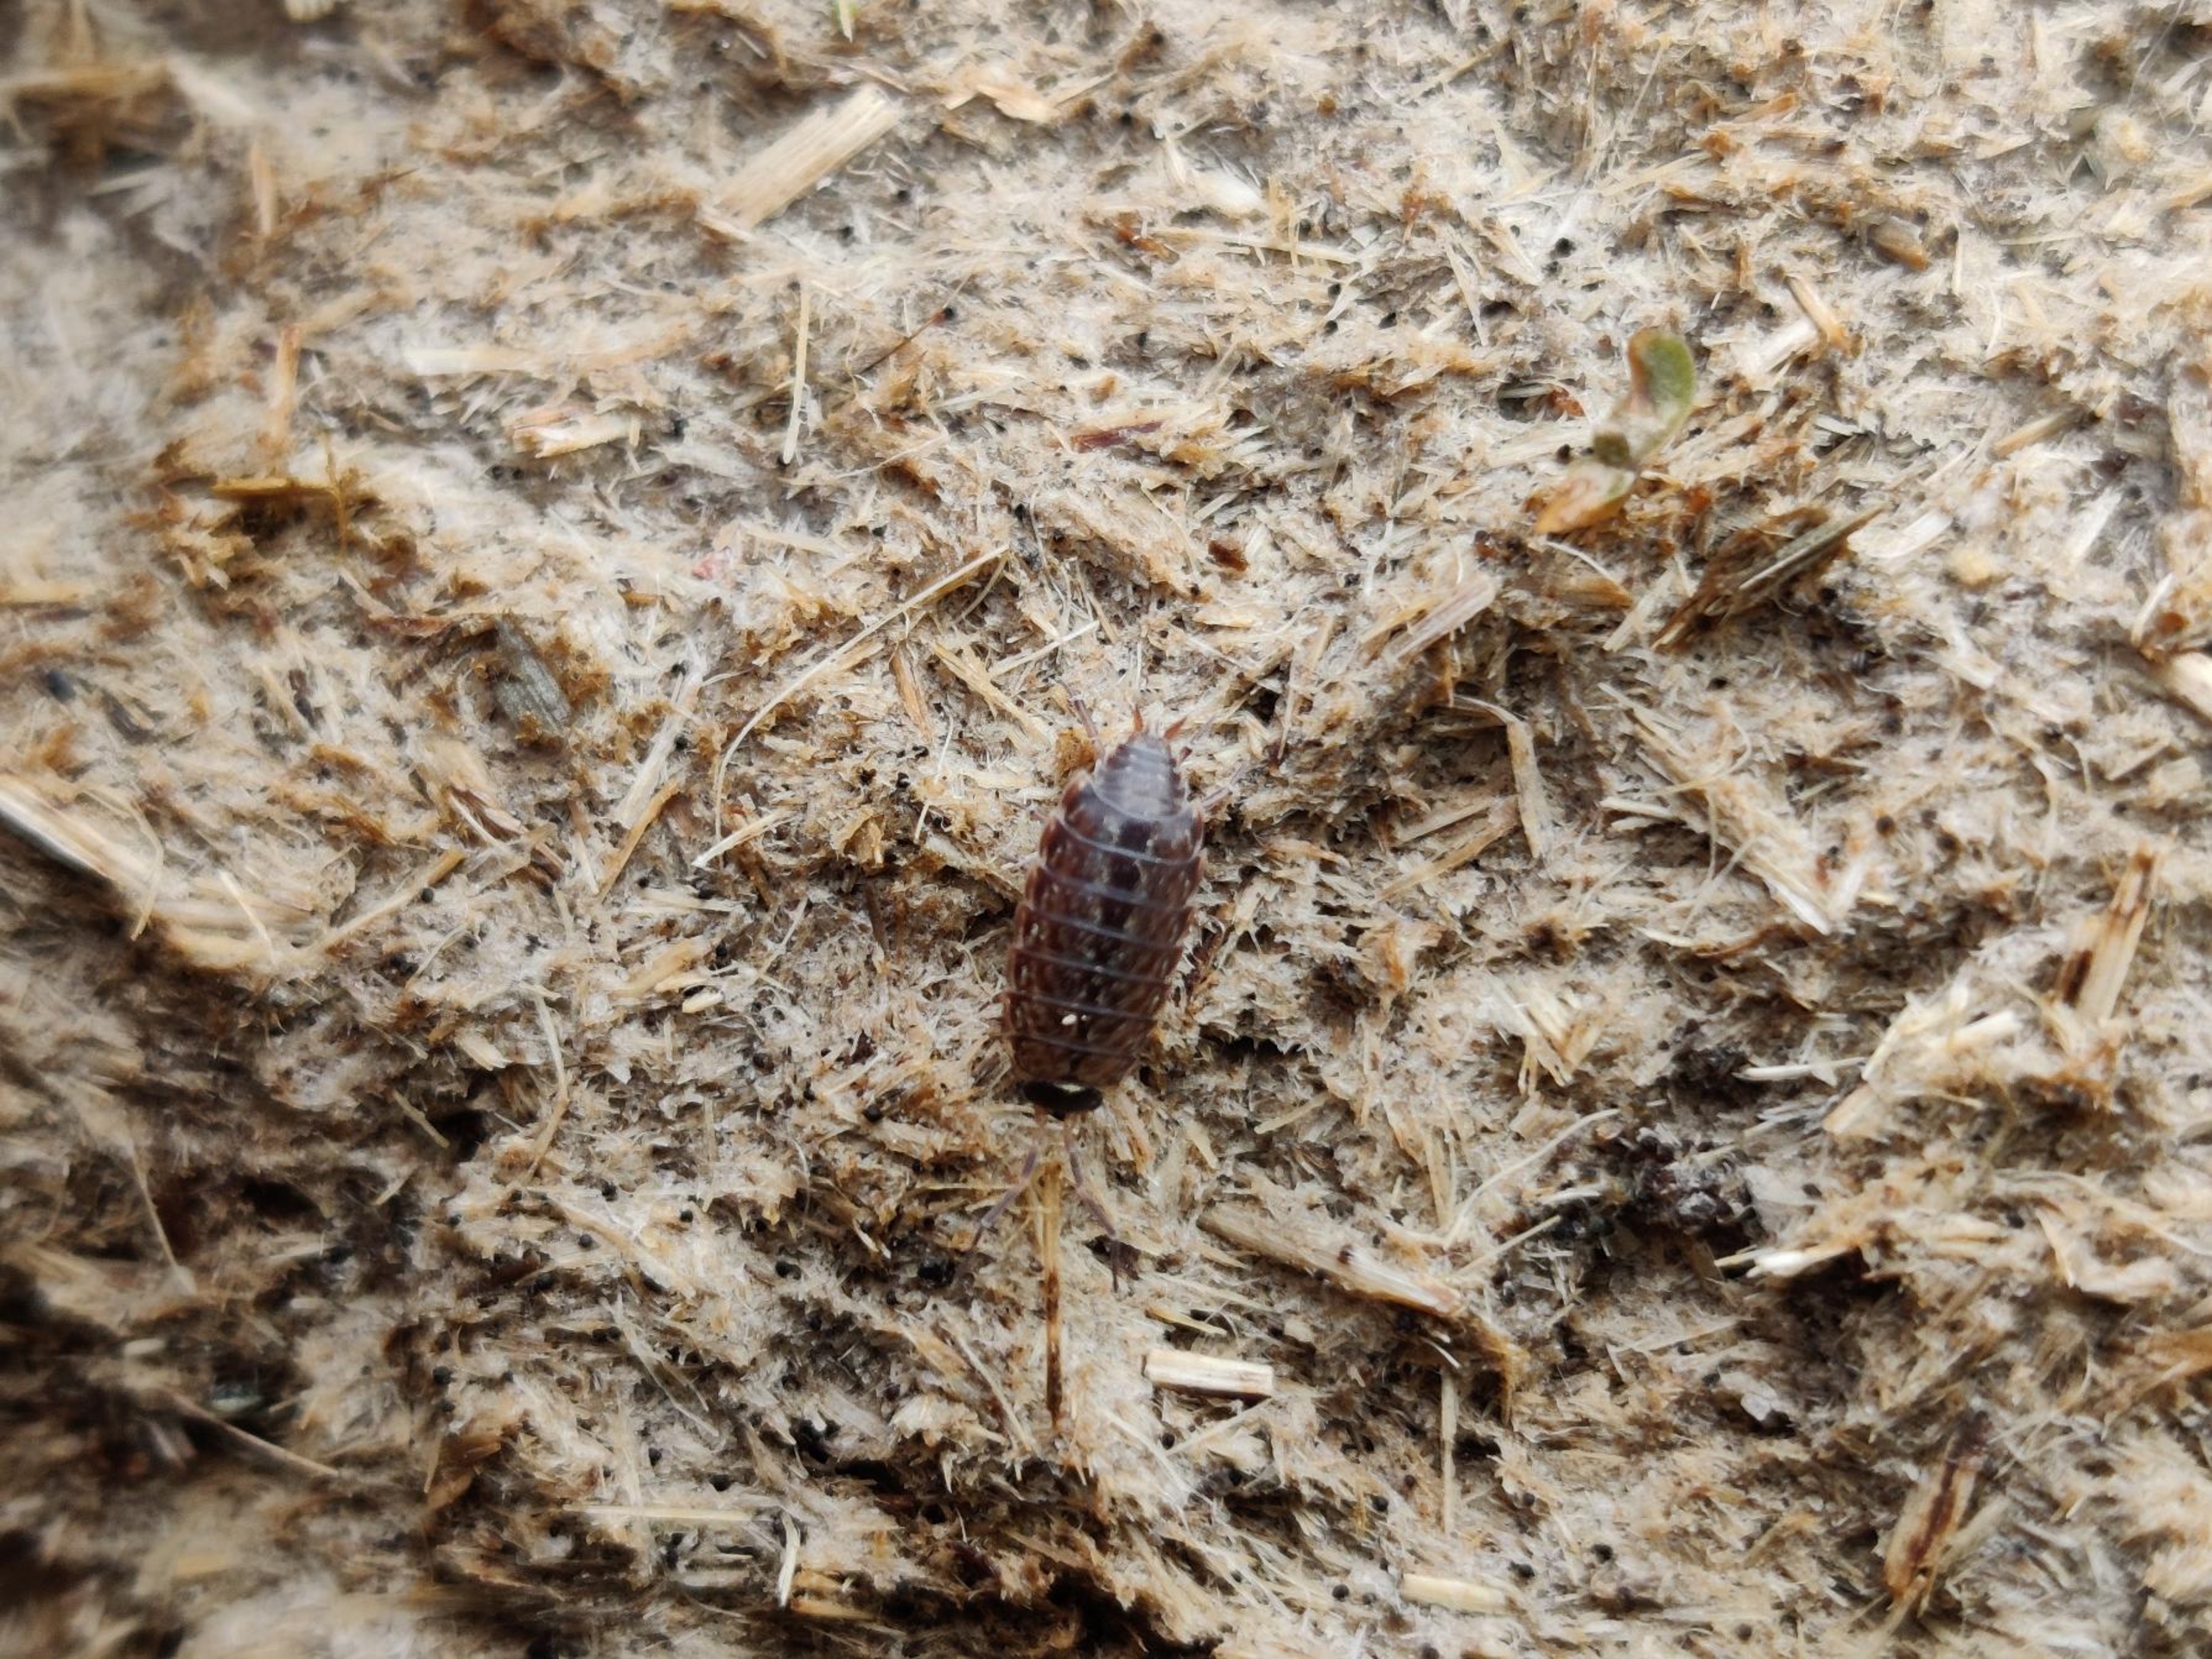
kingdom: Animalia
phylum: Arthropoda
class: Malacostraca
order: Isopoda
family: Philosciidae
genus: Philoscia
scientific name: Philoscia muscorum
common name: Langbenet bænkebider
